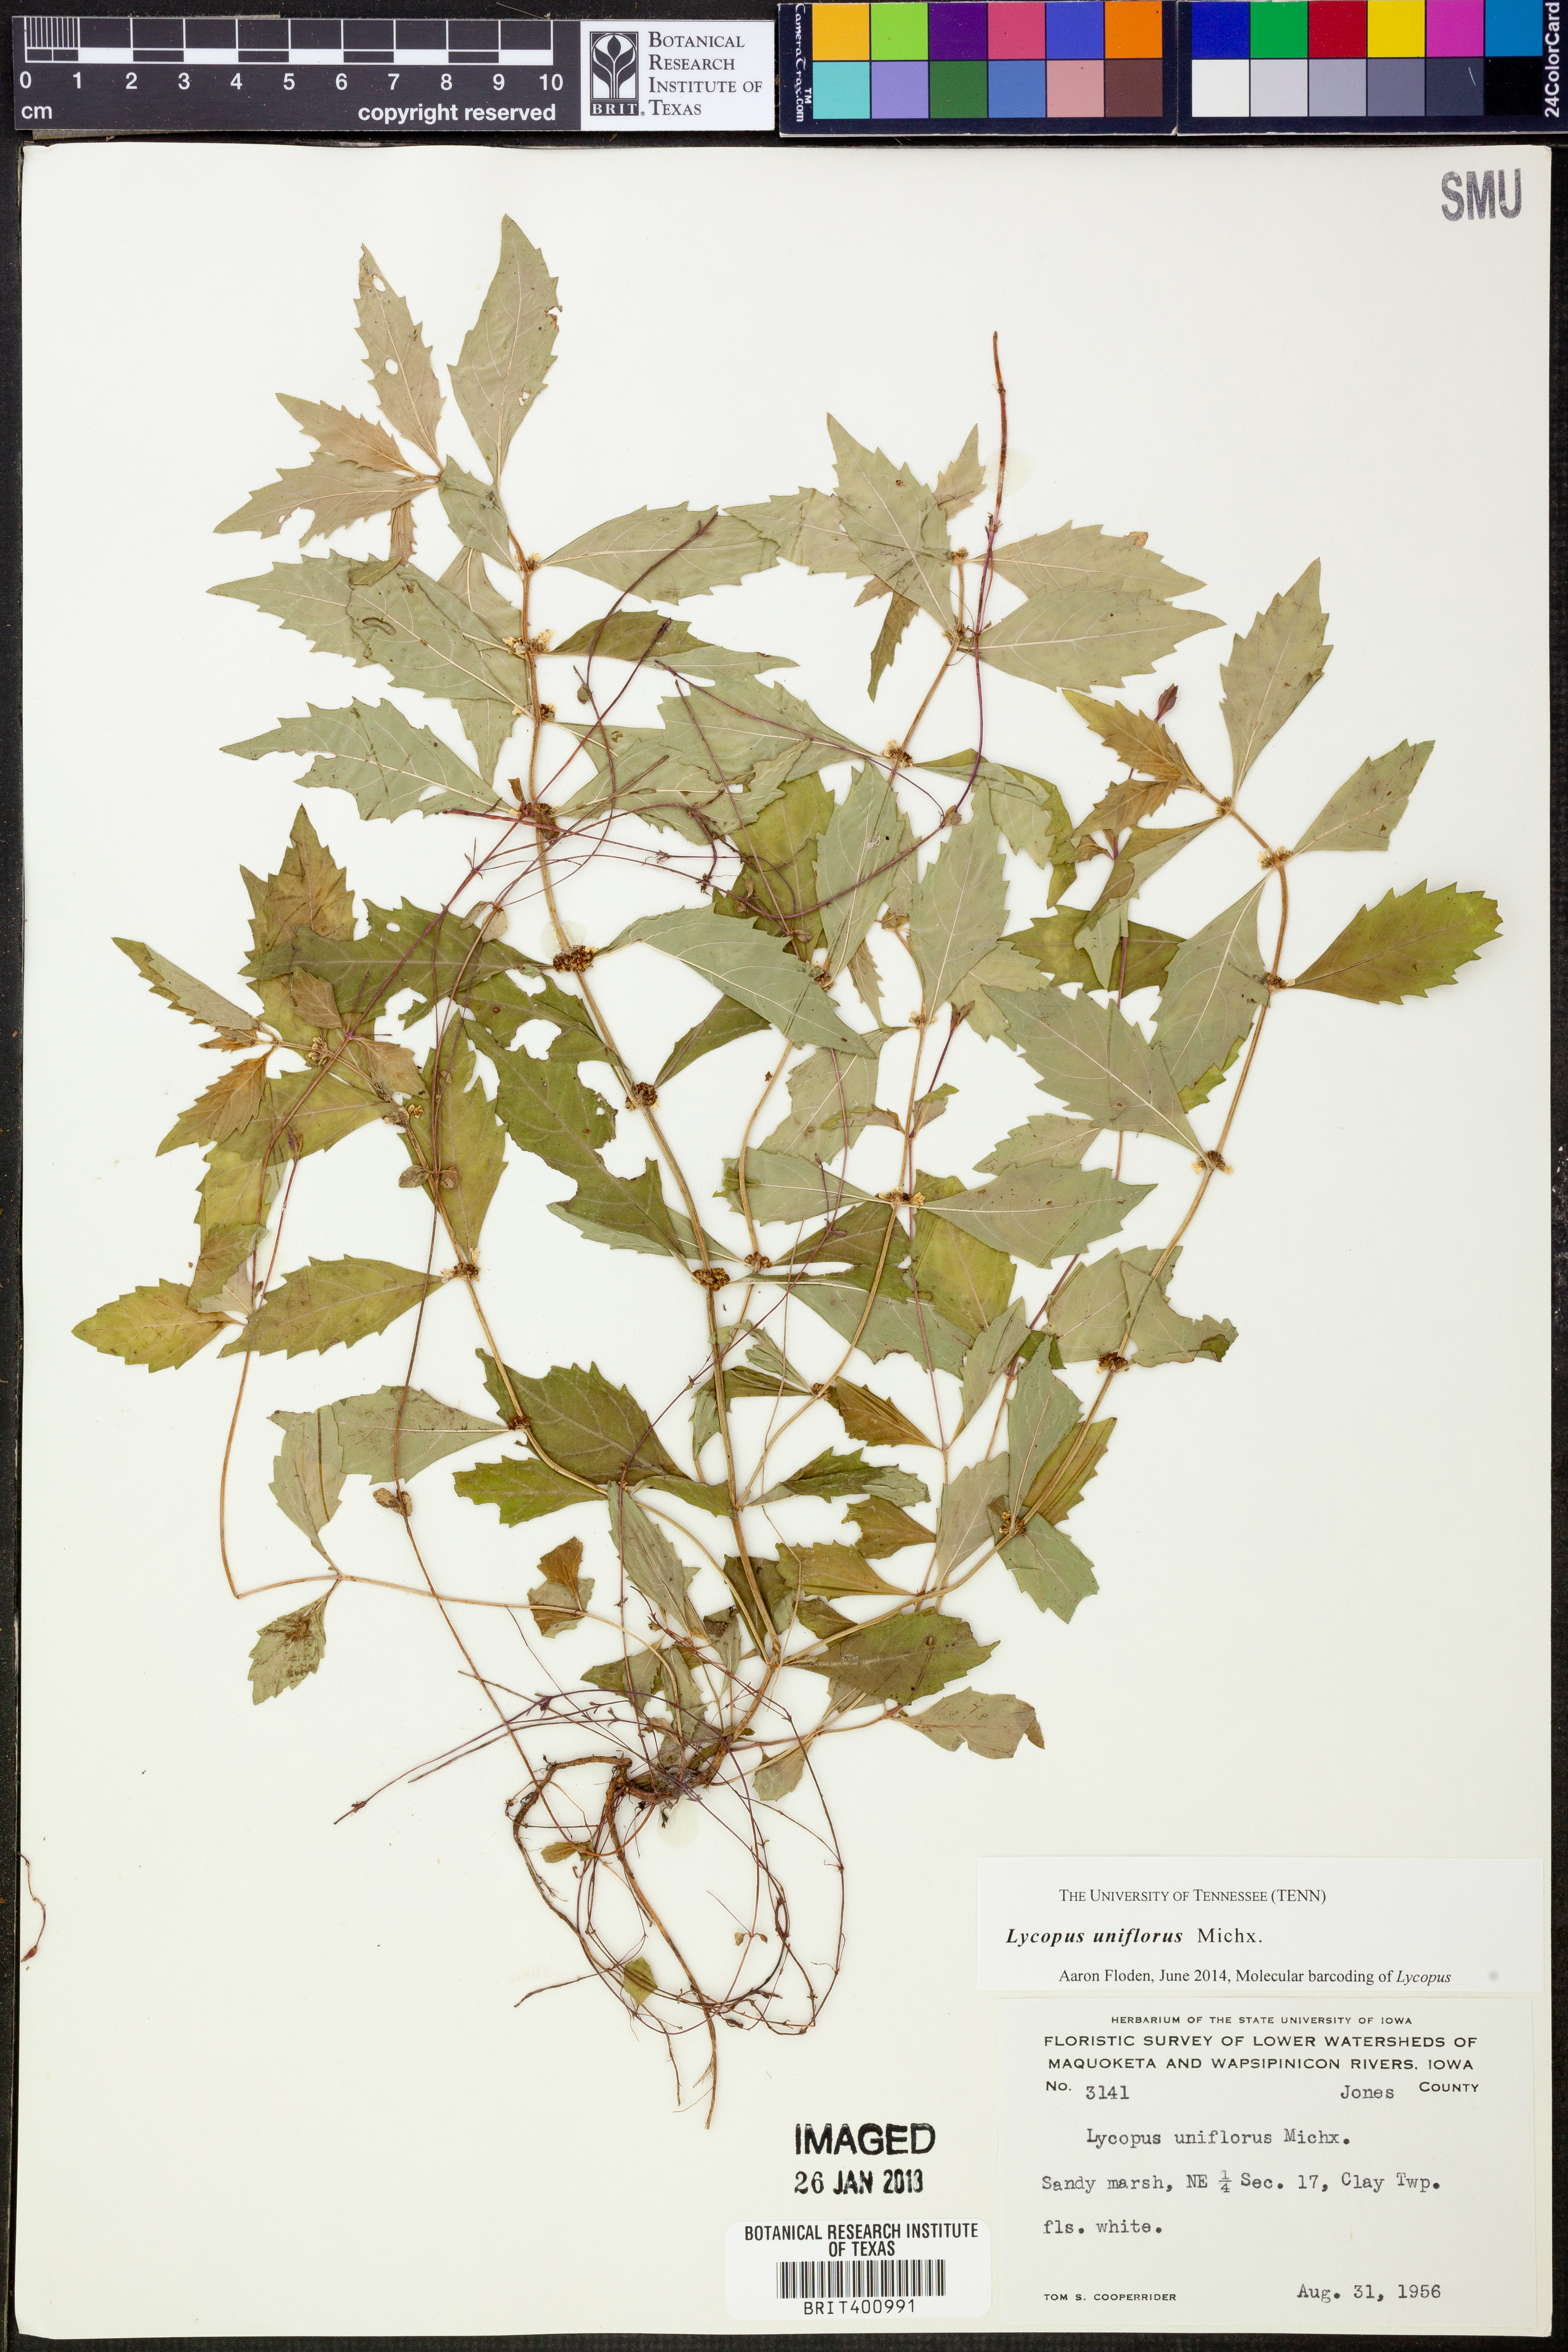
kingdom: Plantae
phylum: Tracheophyta
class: Magnoliopsida
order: Lamiales
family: Lamiaceae
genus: Lycopus
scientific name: Lycopus uniflorus
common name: Northern bugleweed
